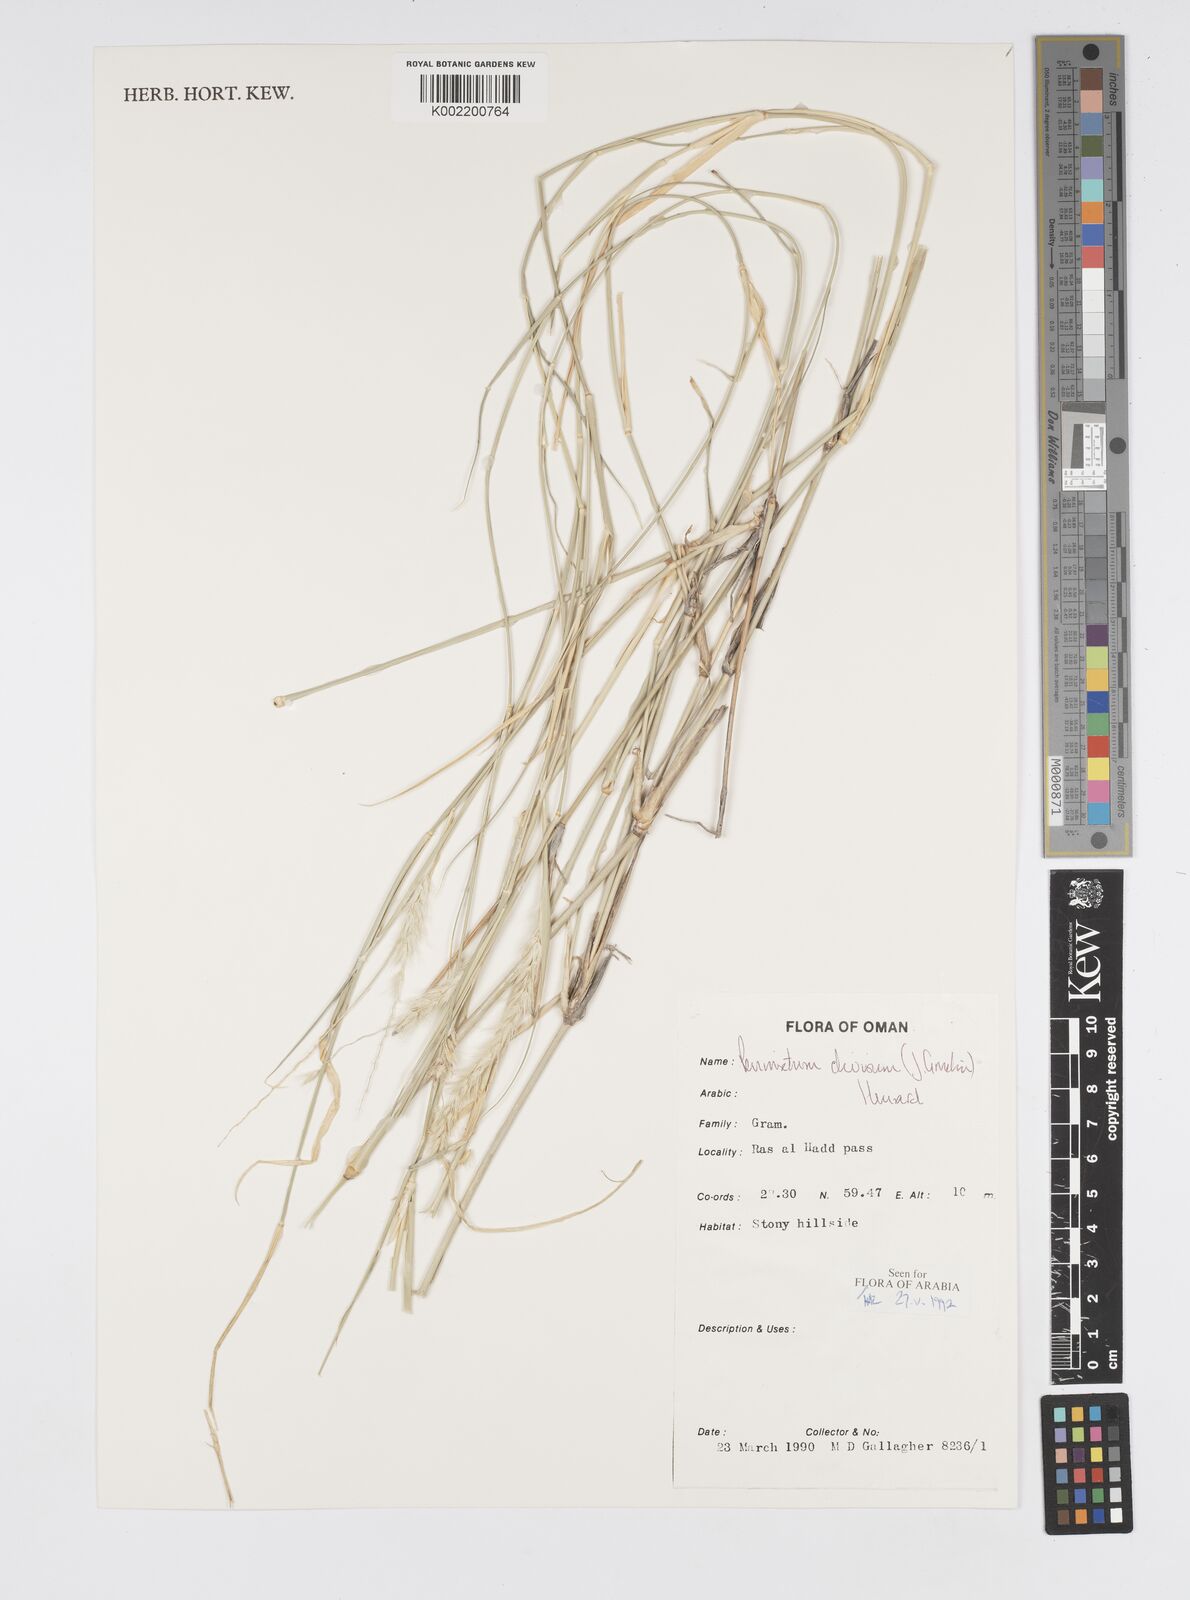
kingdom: Plantae
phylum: Tracheophyta
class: Liliopsida
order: Poales
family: Poaceae
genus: Cenchrus
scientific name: Cenchrus divisus
